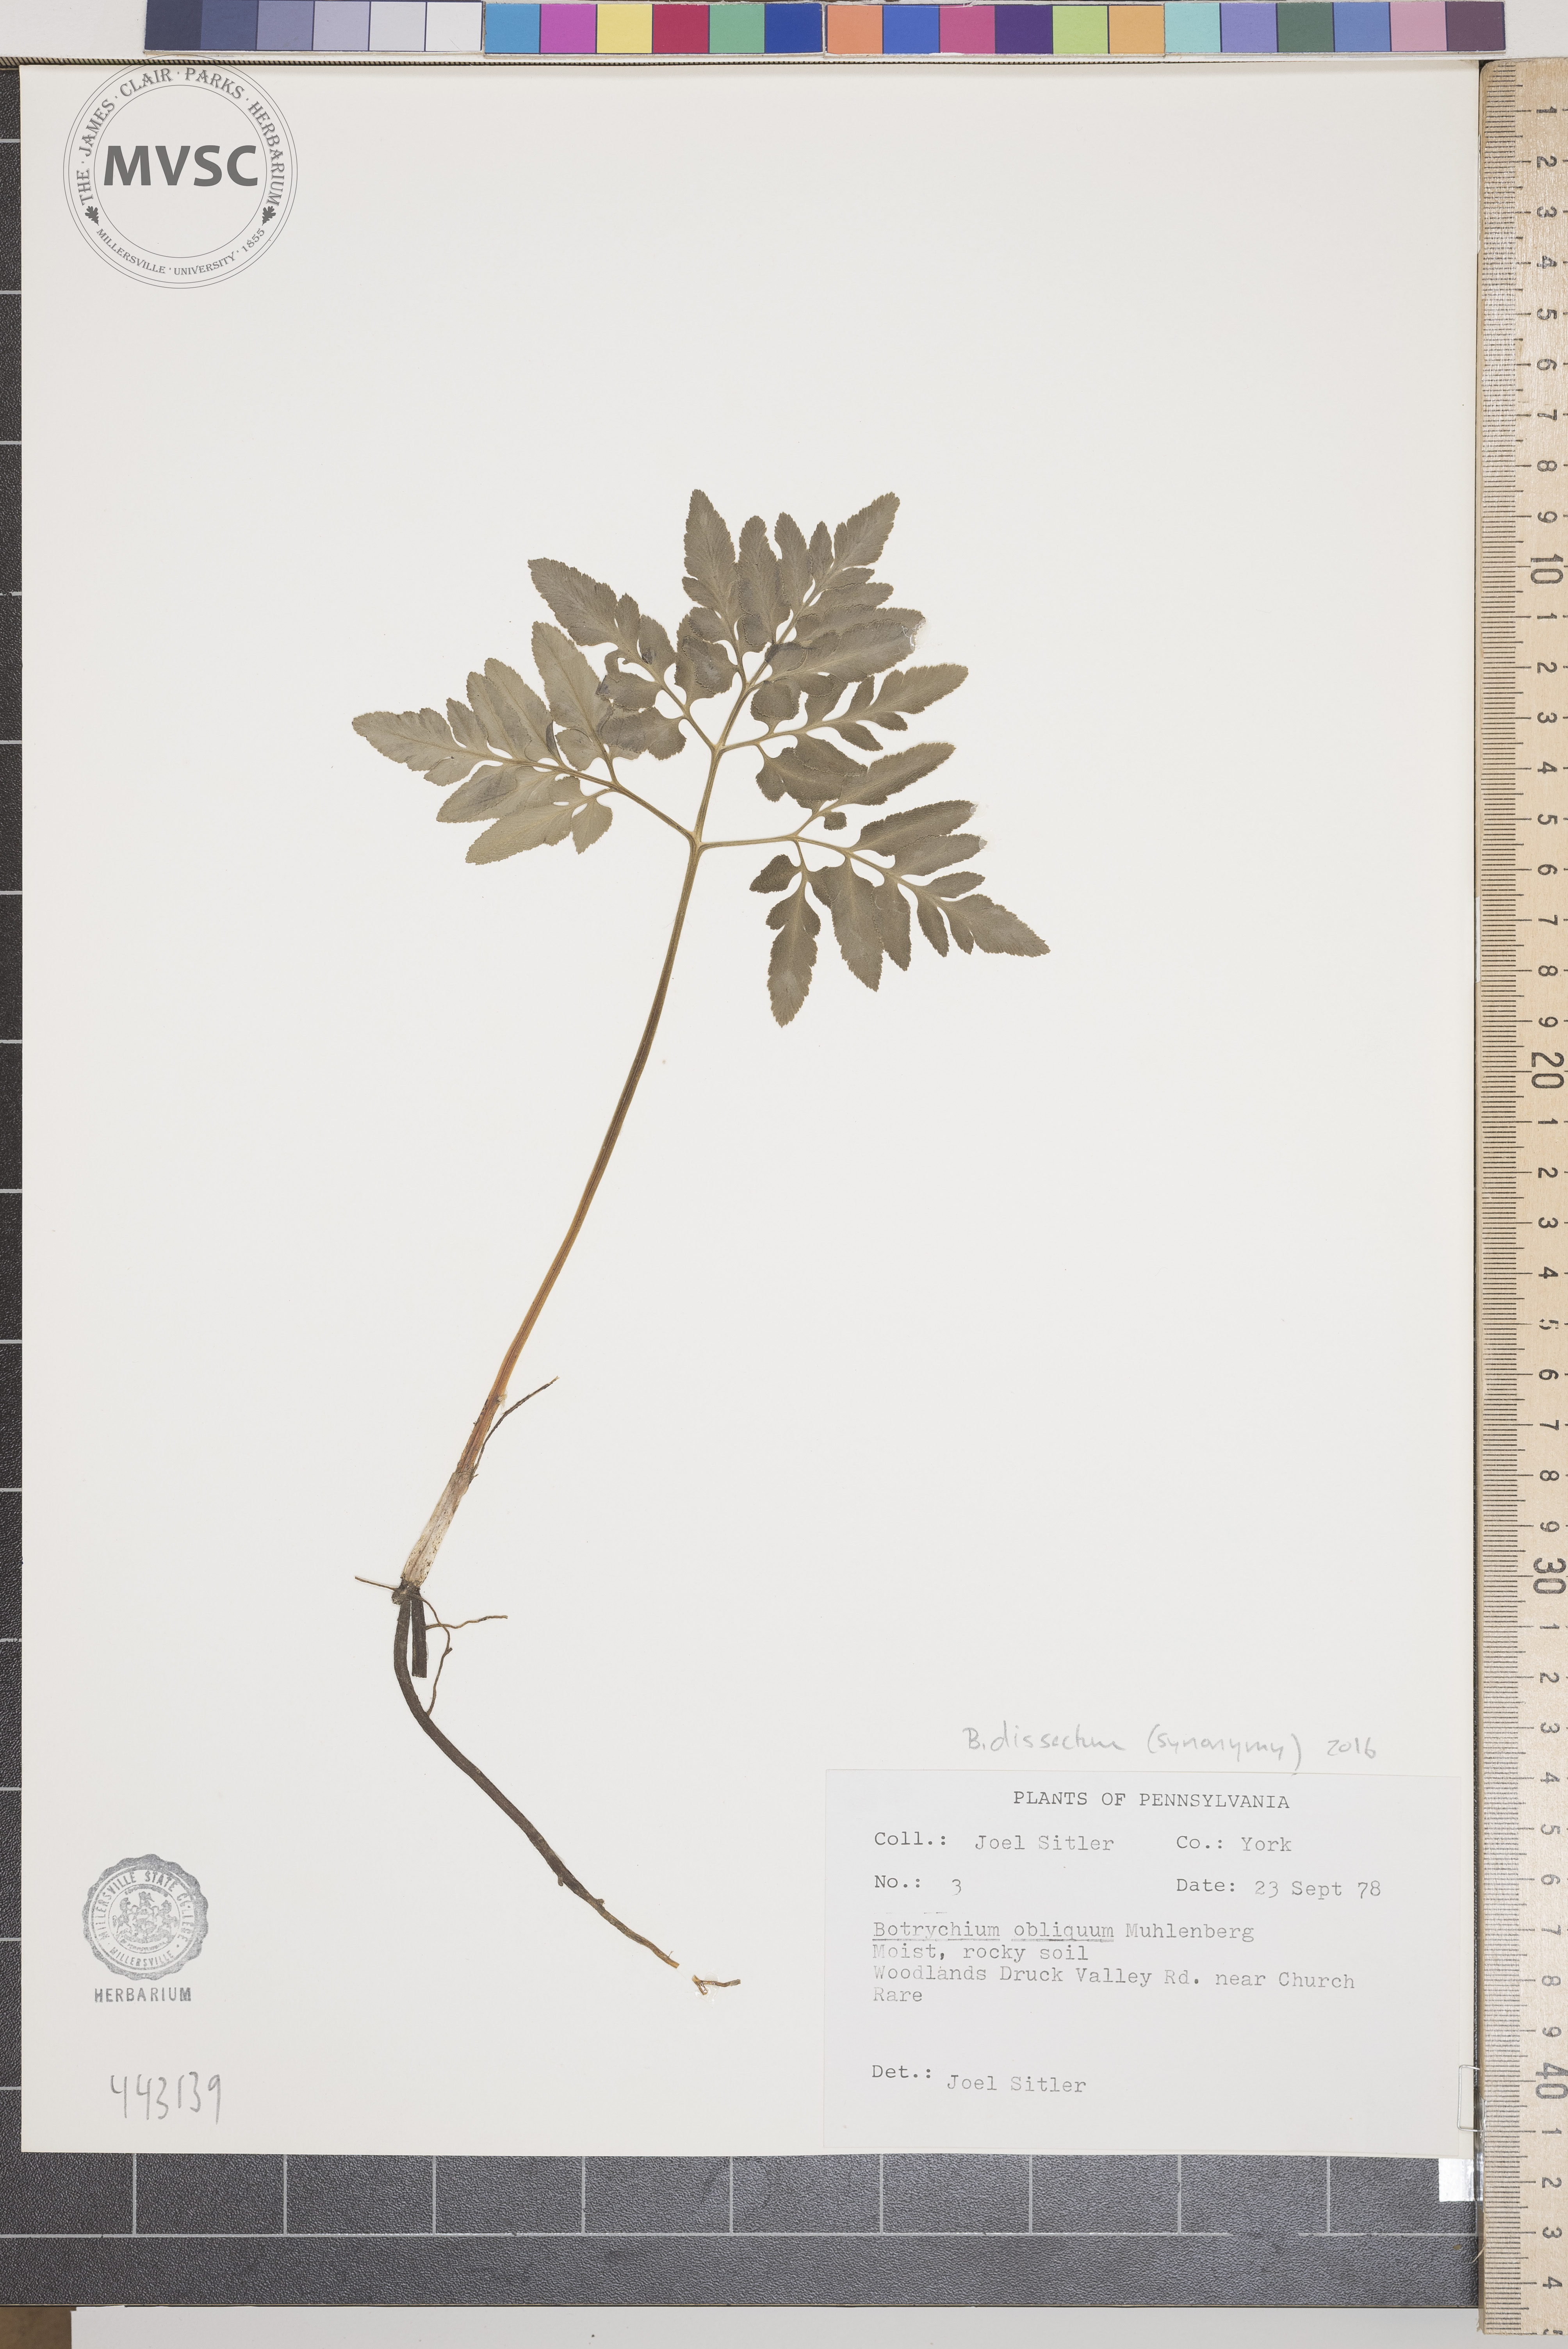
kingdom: Plantae
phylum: Tracheophyta
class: Polypodiopsida
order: Ophioglossales
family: Ophioglossaceae
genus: Sceptridium
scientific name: Sceptridium dissectum
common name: Cut-leaved grapefern
